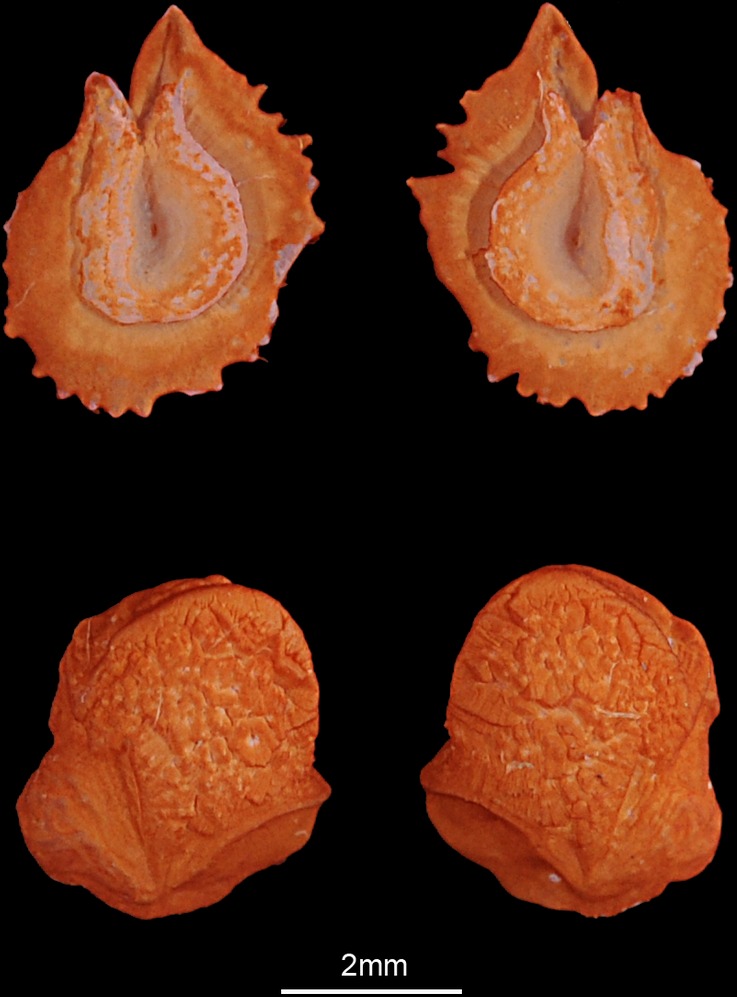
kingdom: Animalia
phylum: Chordata
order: Cypriniformes
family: Cyprinidae
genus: Rutilus
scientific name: Rutilus rutilus
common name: Roach
